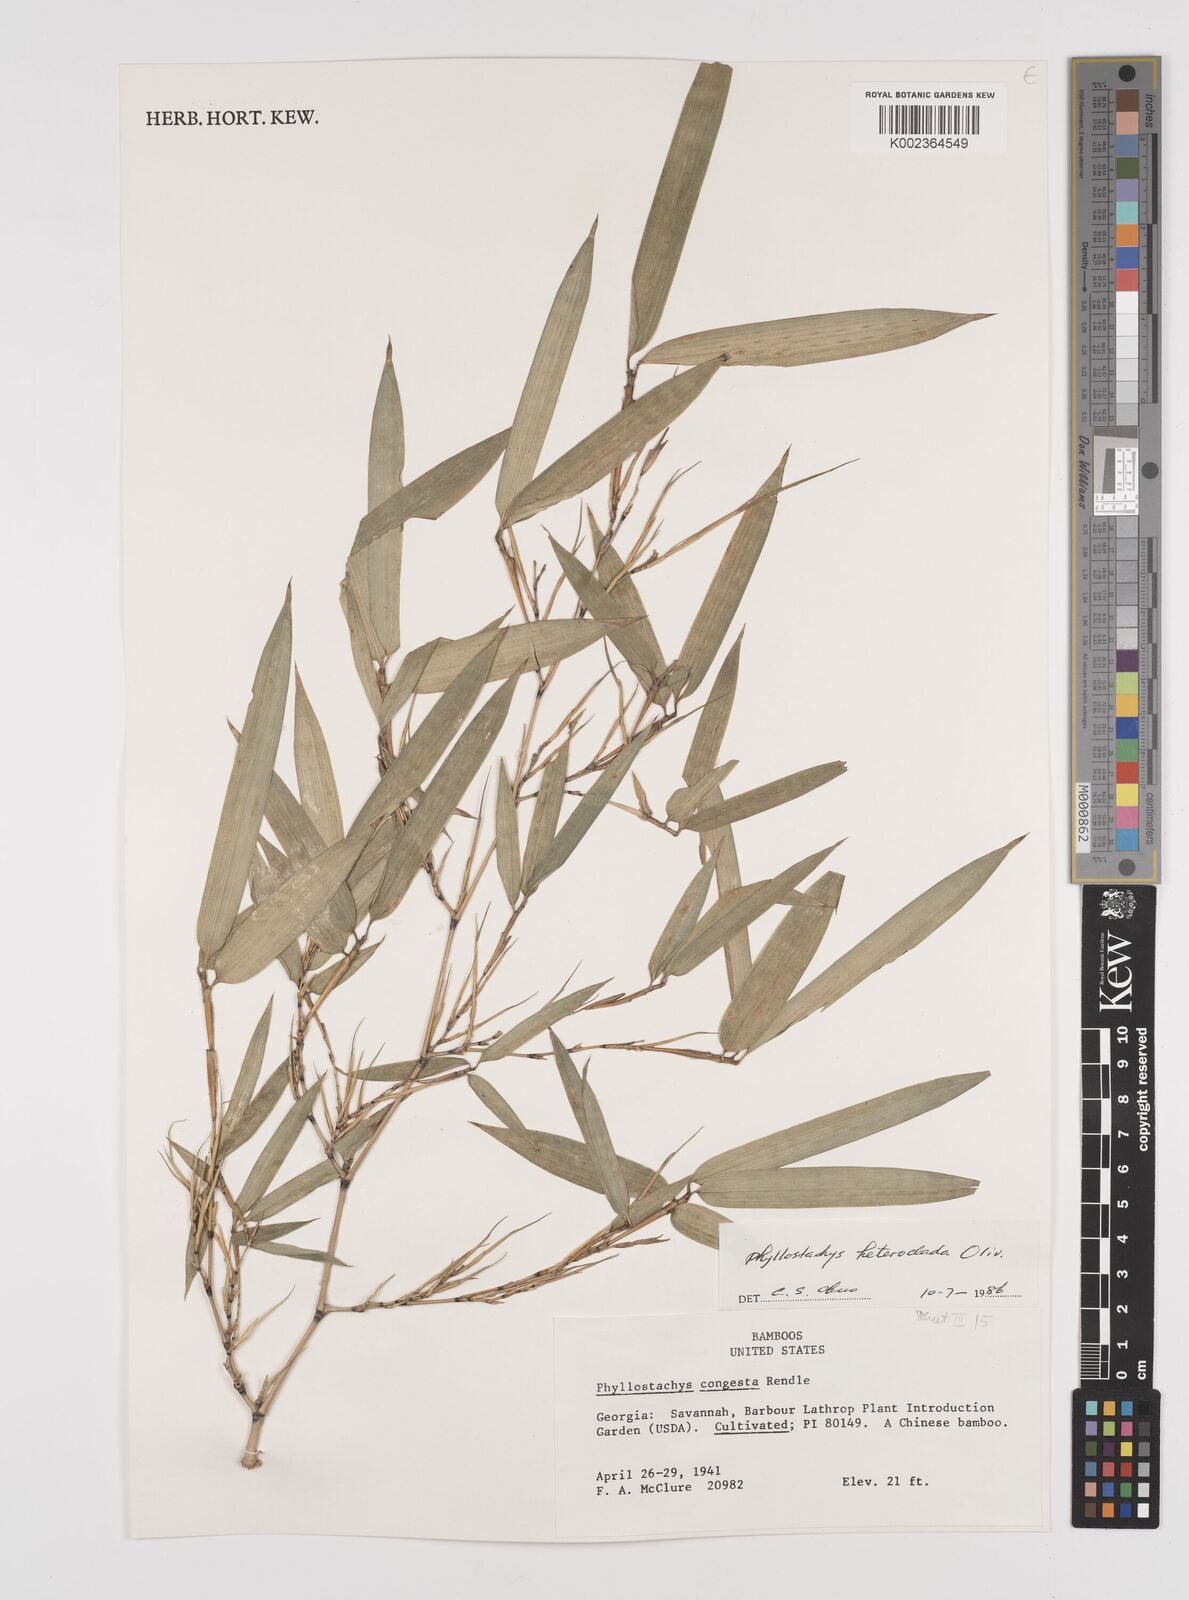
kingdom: Plantae
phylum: Tracheophyta
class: Liliopsida
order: Poales
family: Poaceae
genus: Phyllostachys
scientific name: Phyllostachys heteroclada
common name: Fishscale bamboo
